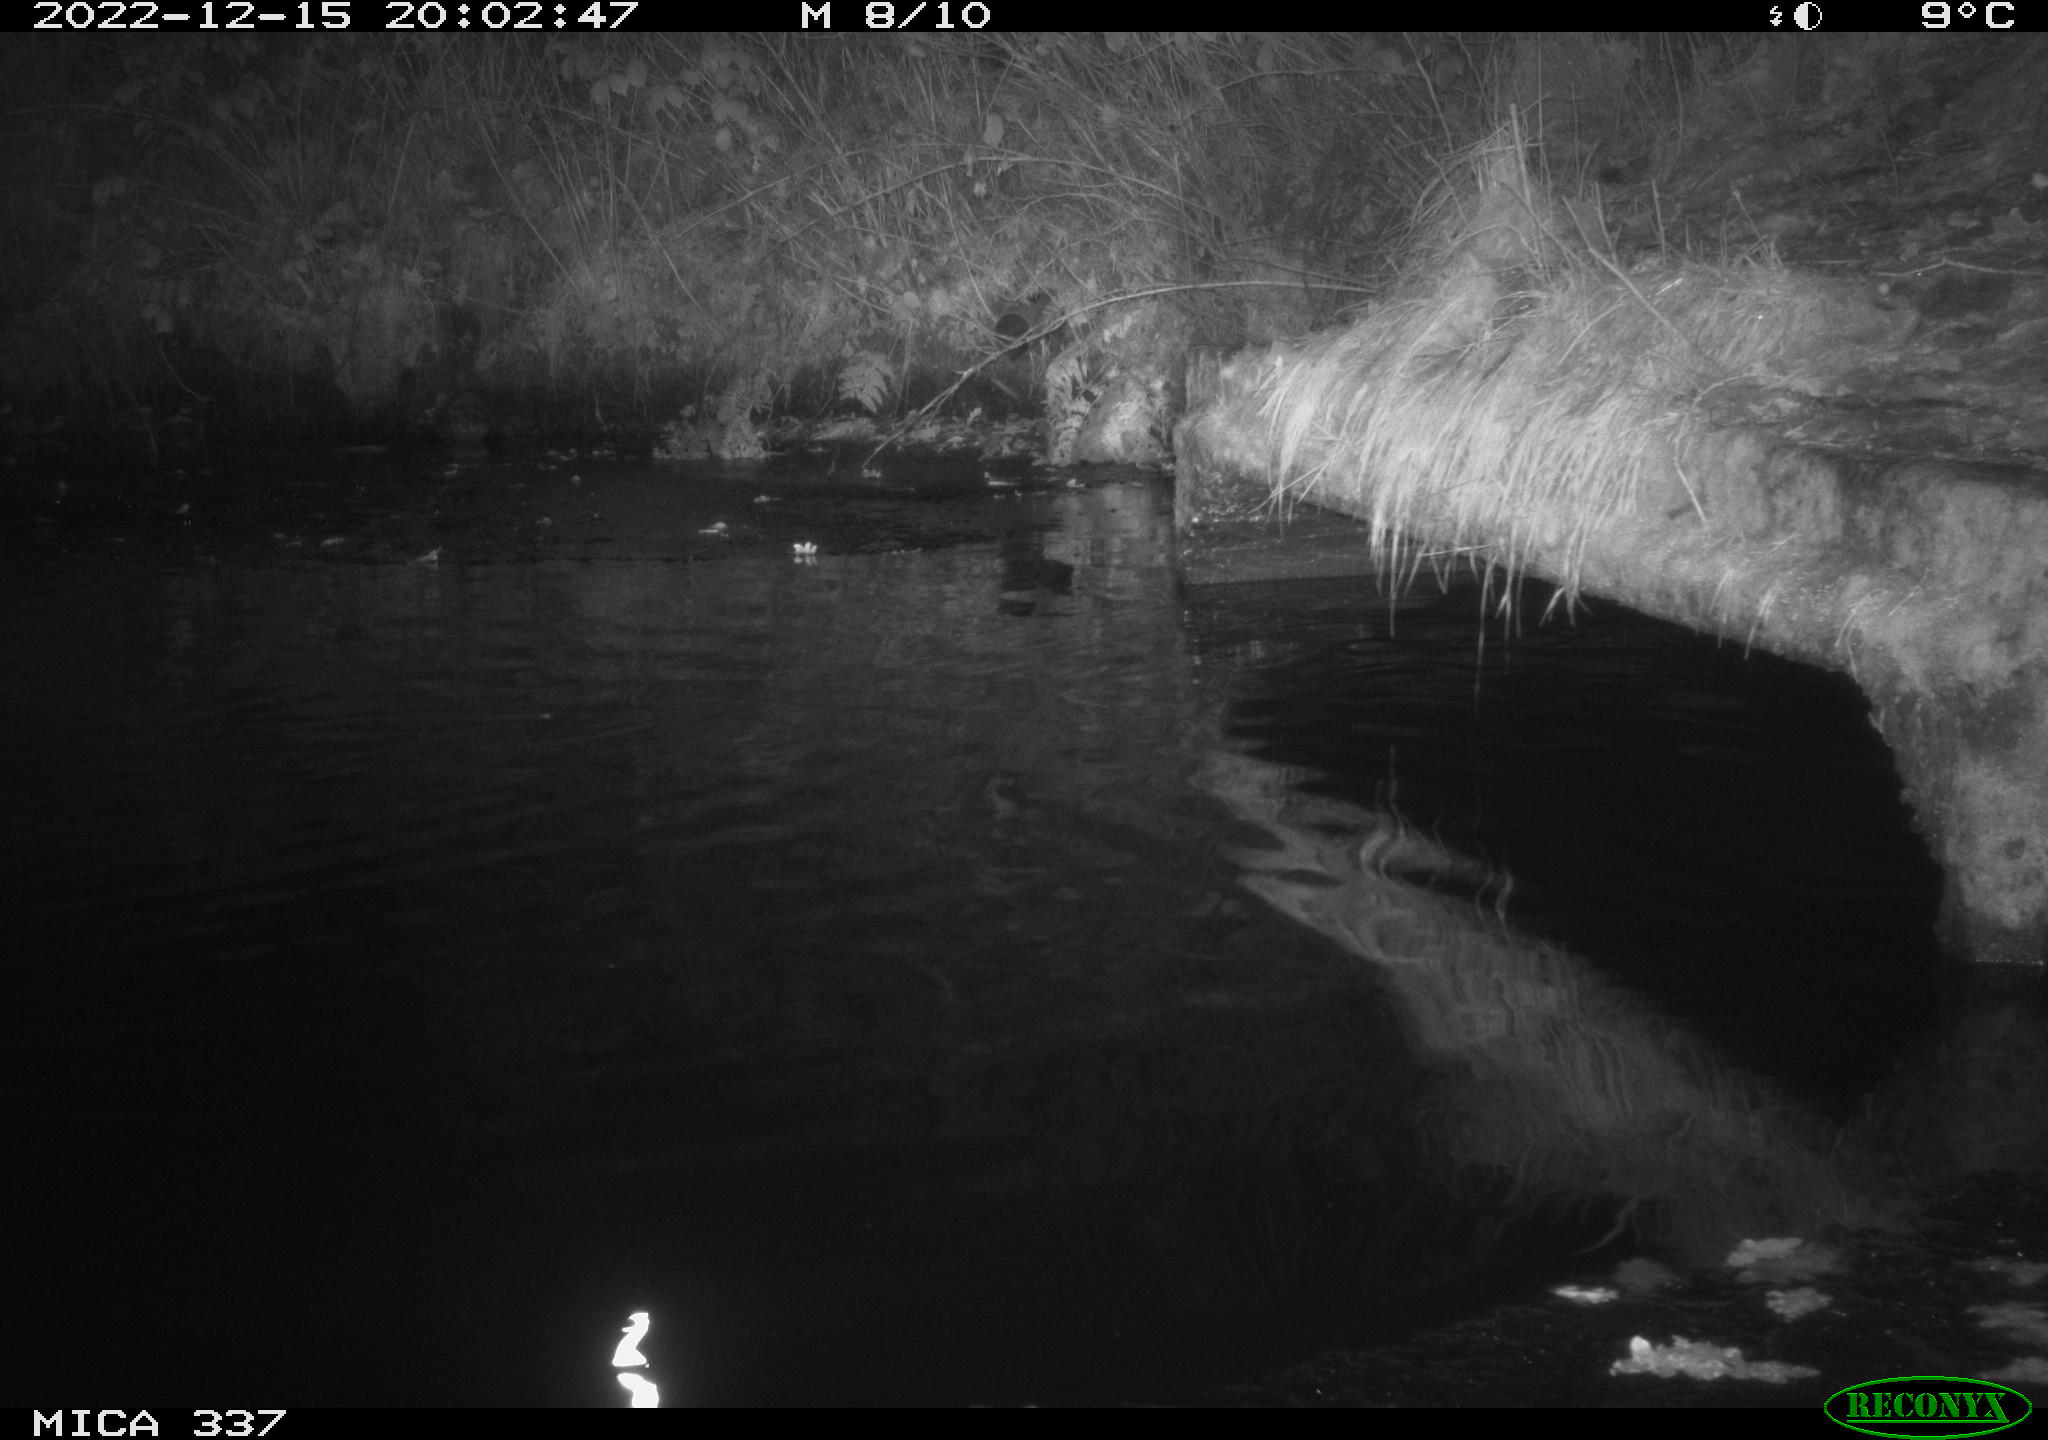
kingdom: Animalia
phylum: Chordata
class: Aves
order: Anseriformes
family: Anatidae
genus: Anas
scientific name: Anas
